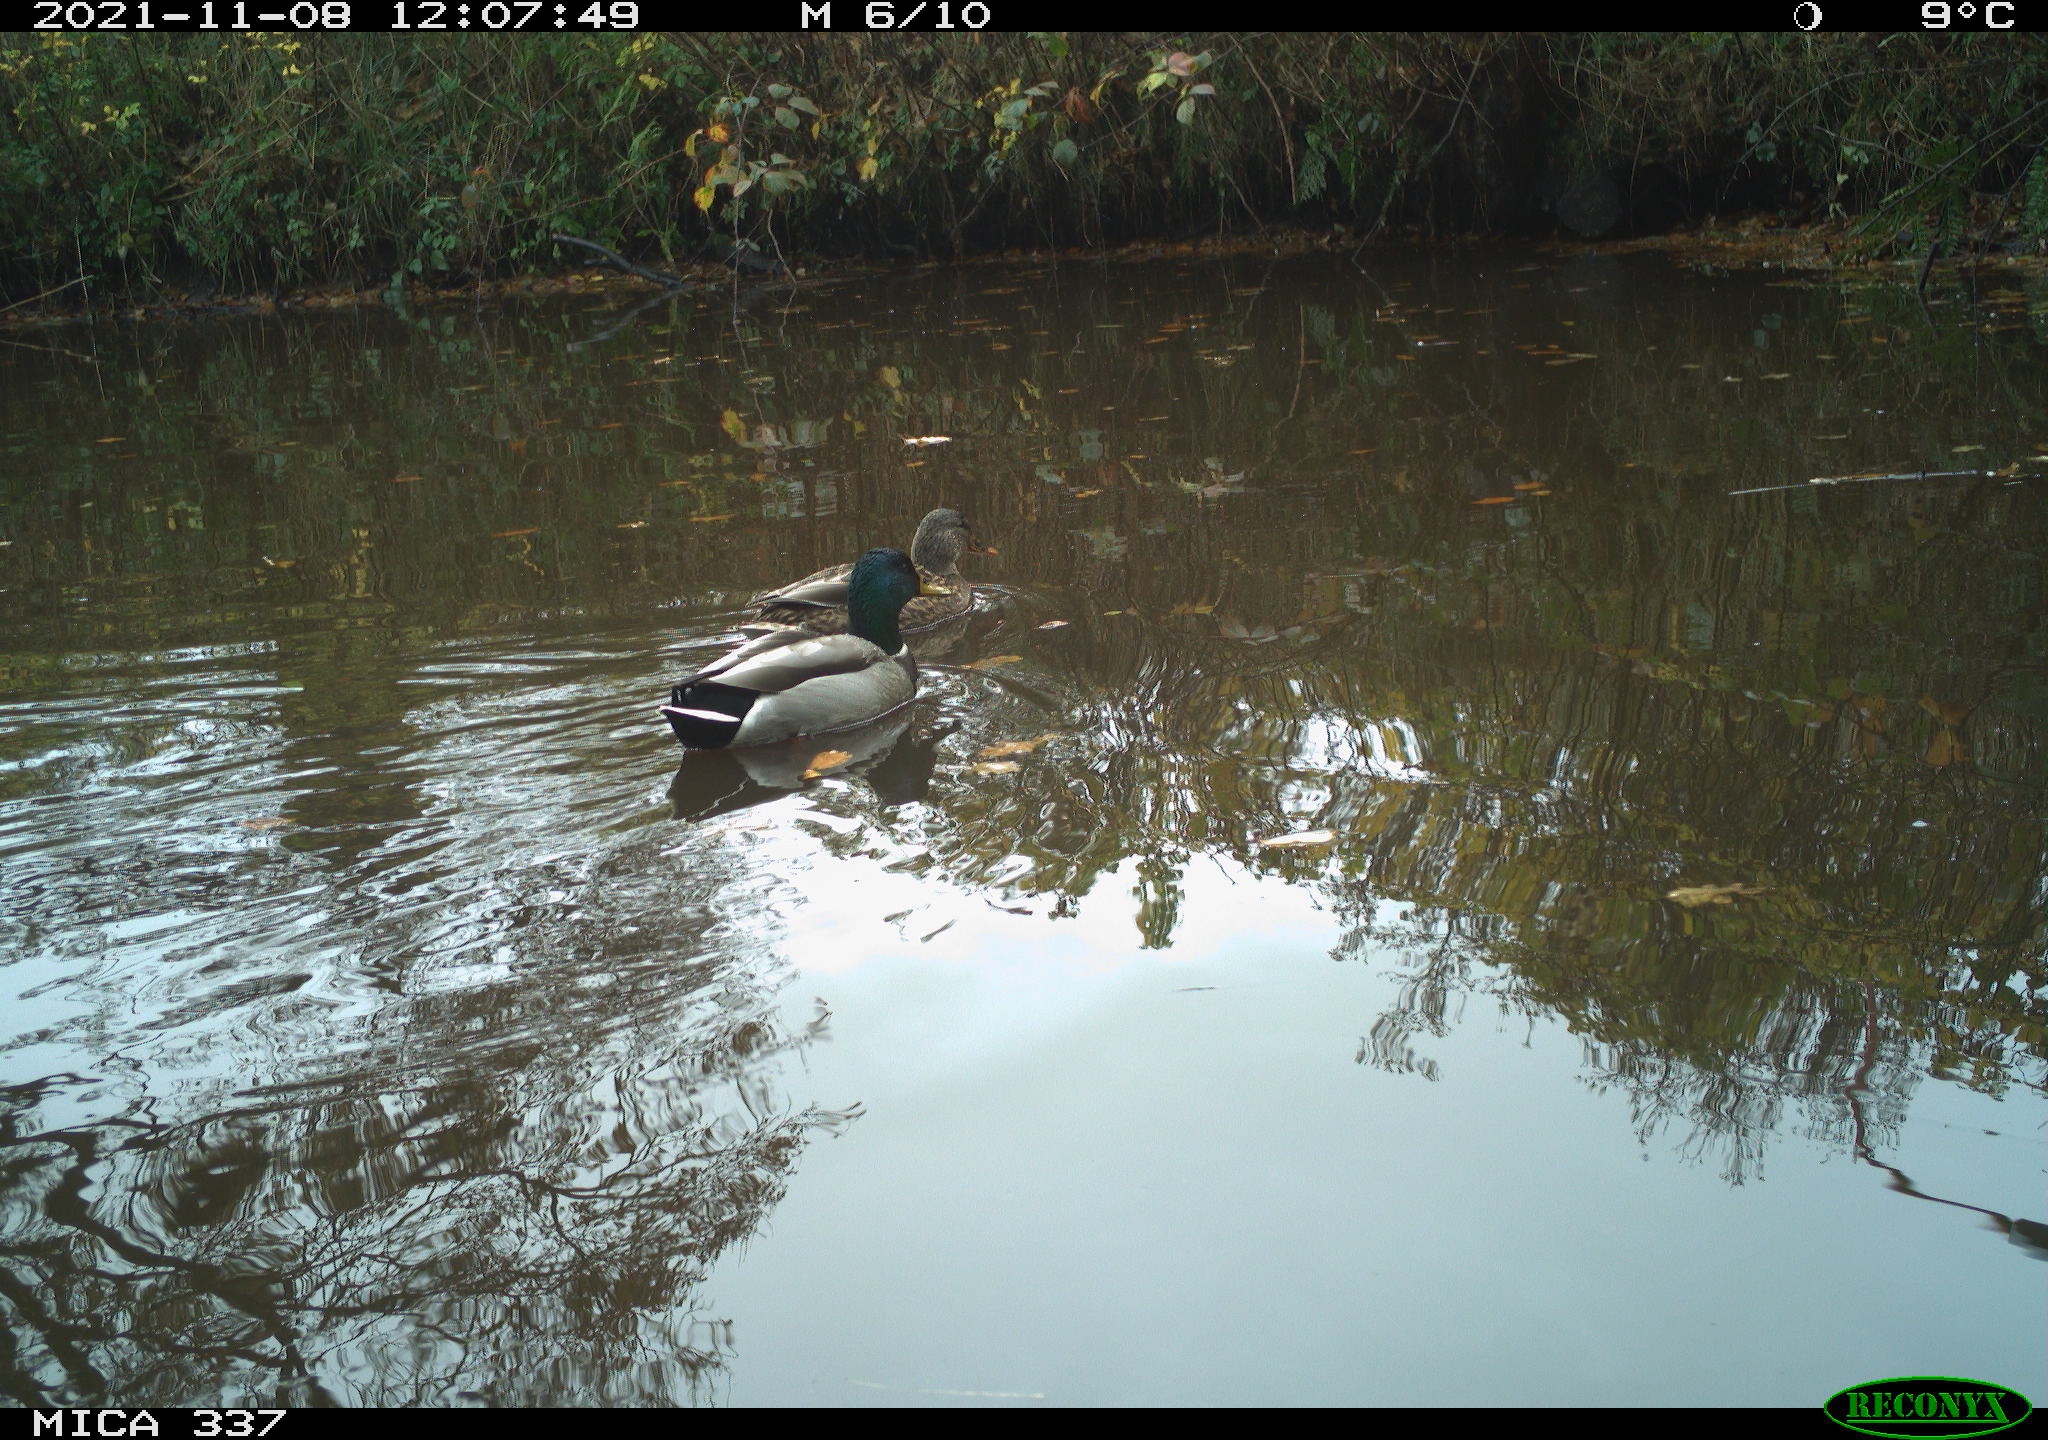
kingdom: Animalia
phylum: Chordata
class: Aves
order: Anseriformes
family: Anatidae
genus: Anas
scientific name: Anas platyrhynchos
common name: Mallard
